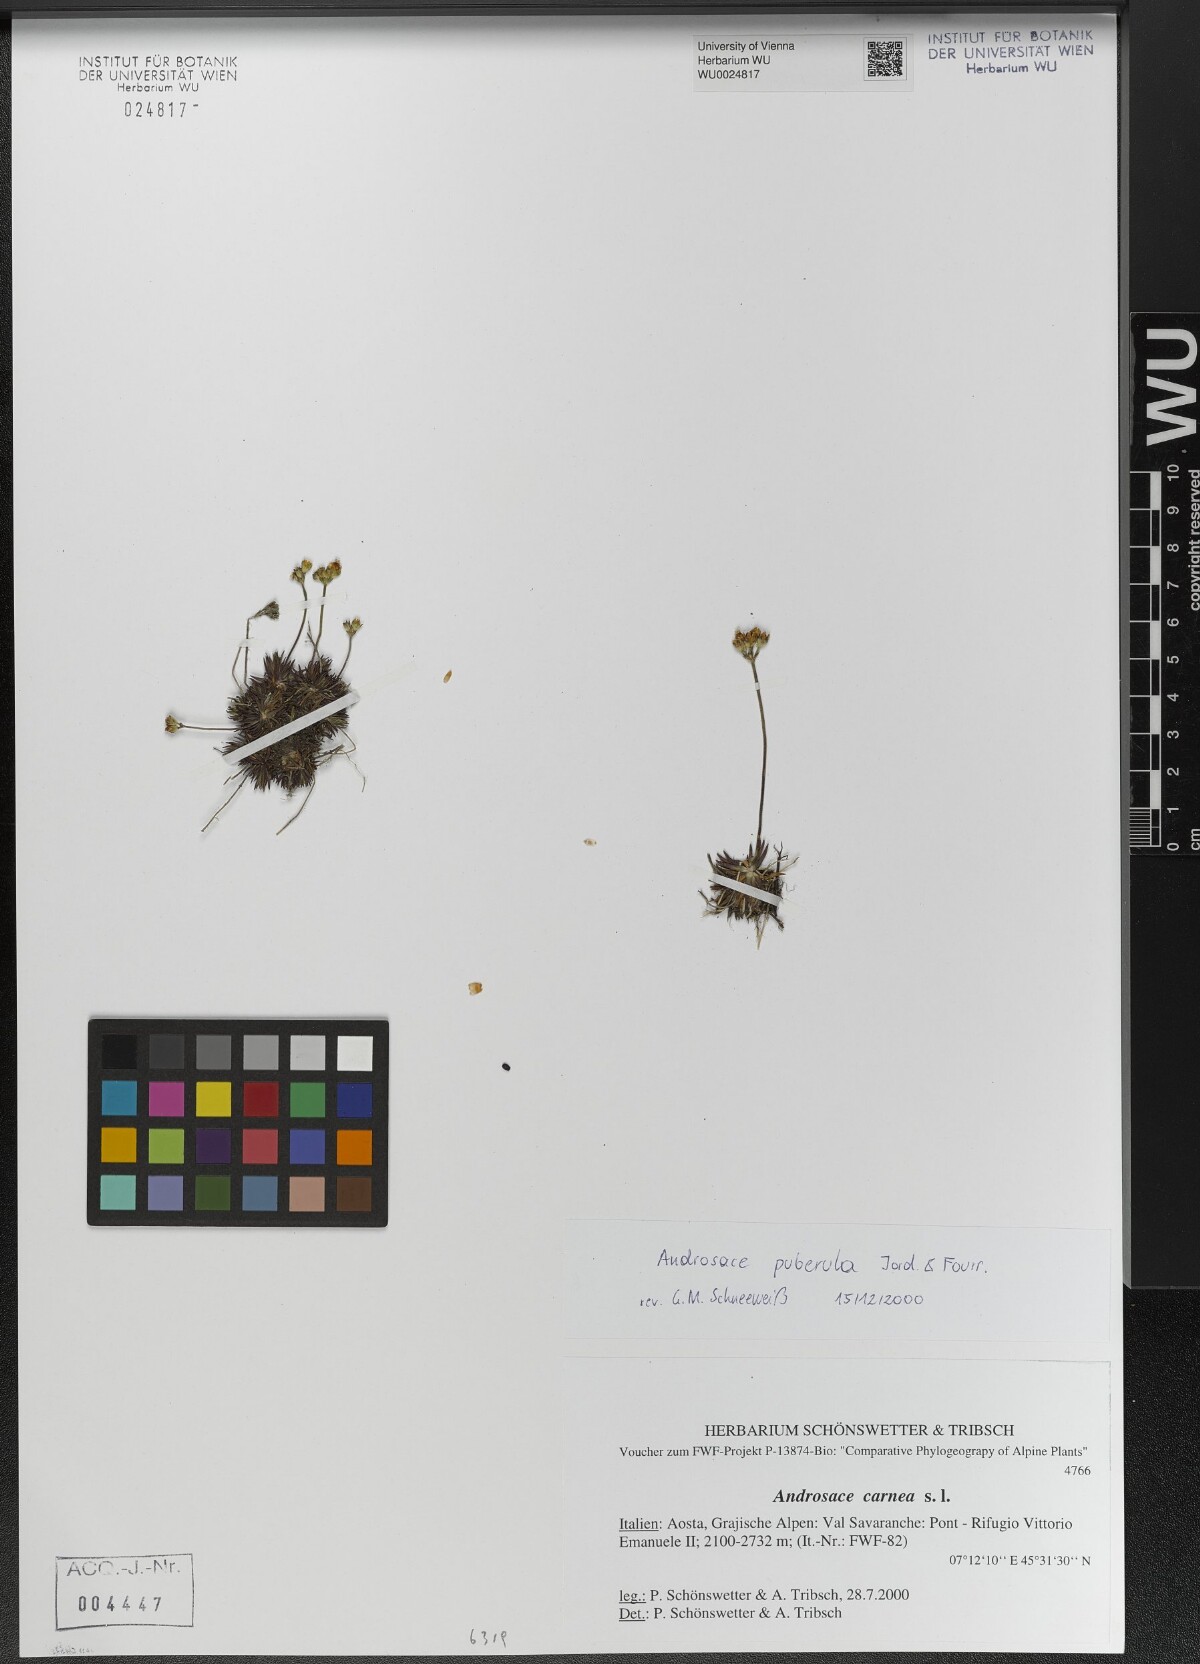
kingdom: Plantae
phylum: Tracheophyta
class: Magnoliopsida
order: Ericales
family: Primulaceae
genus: Androsace
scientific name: Androsace adfinis
